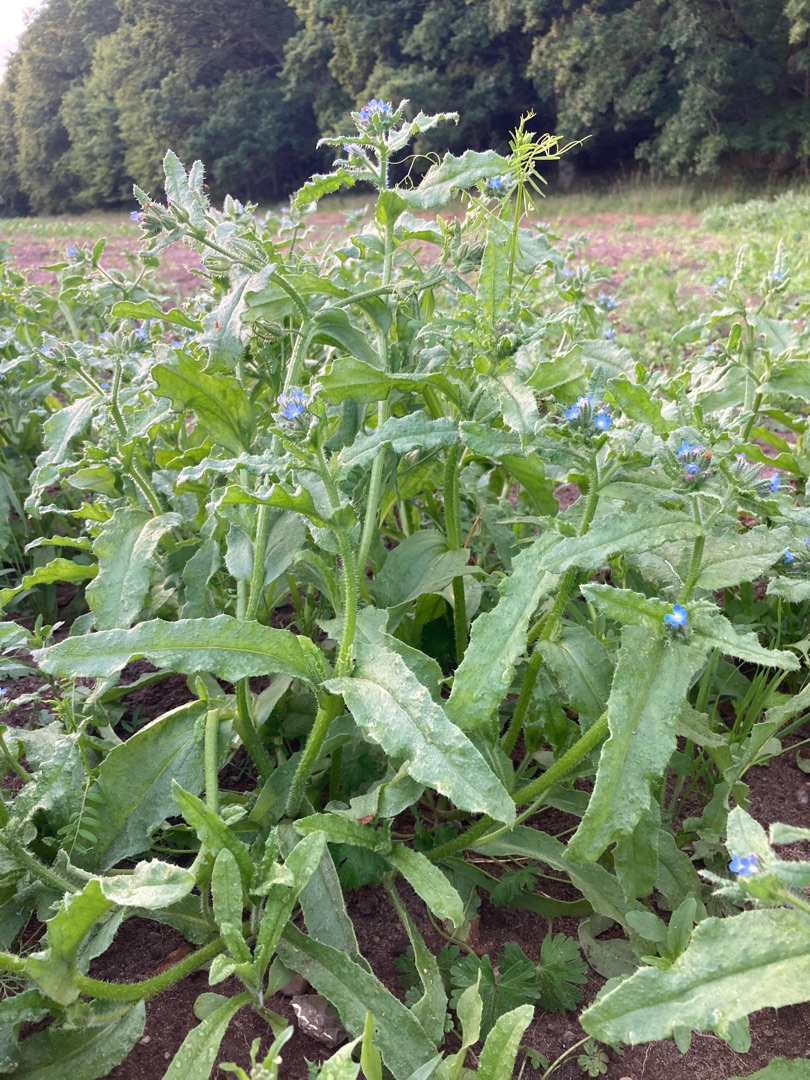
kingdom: Plantae
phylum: Tracheophyta
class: Magnoliopsida
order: Boraginales
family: Boraginaceae
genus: Lycopsis
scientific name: Lycopsis arvensis
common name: Krumhals
